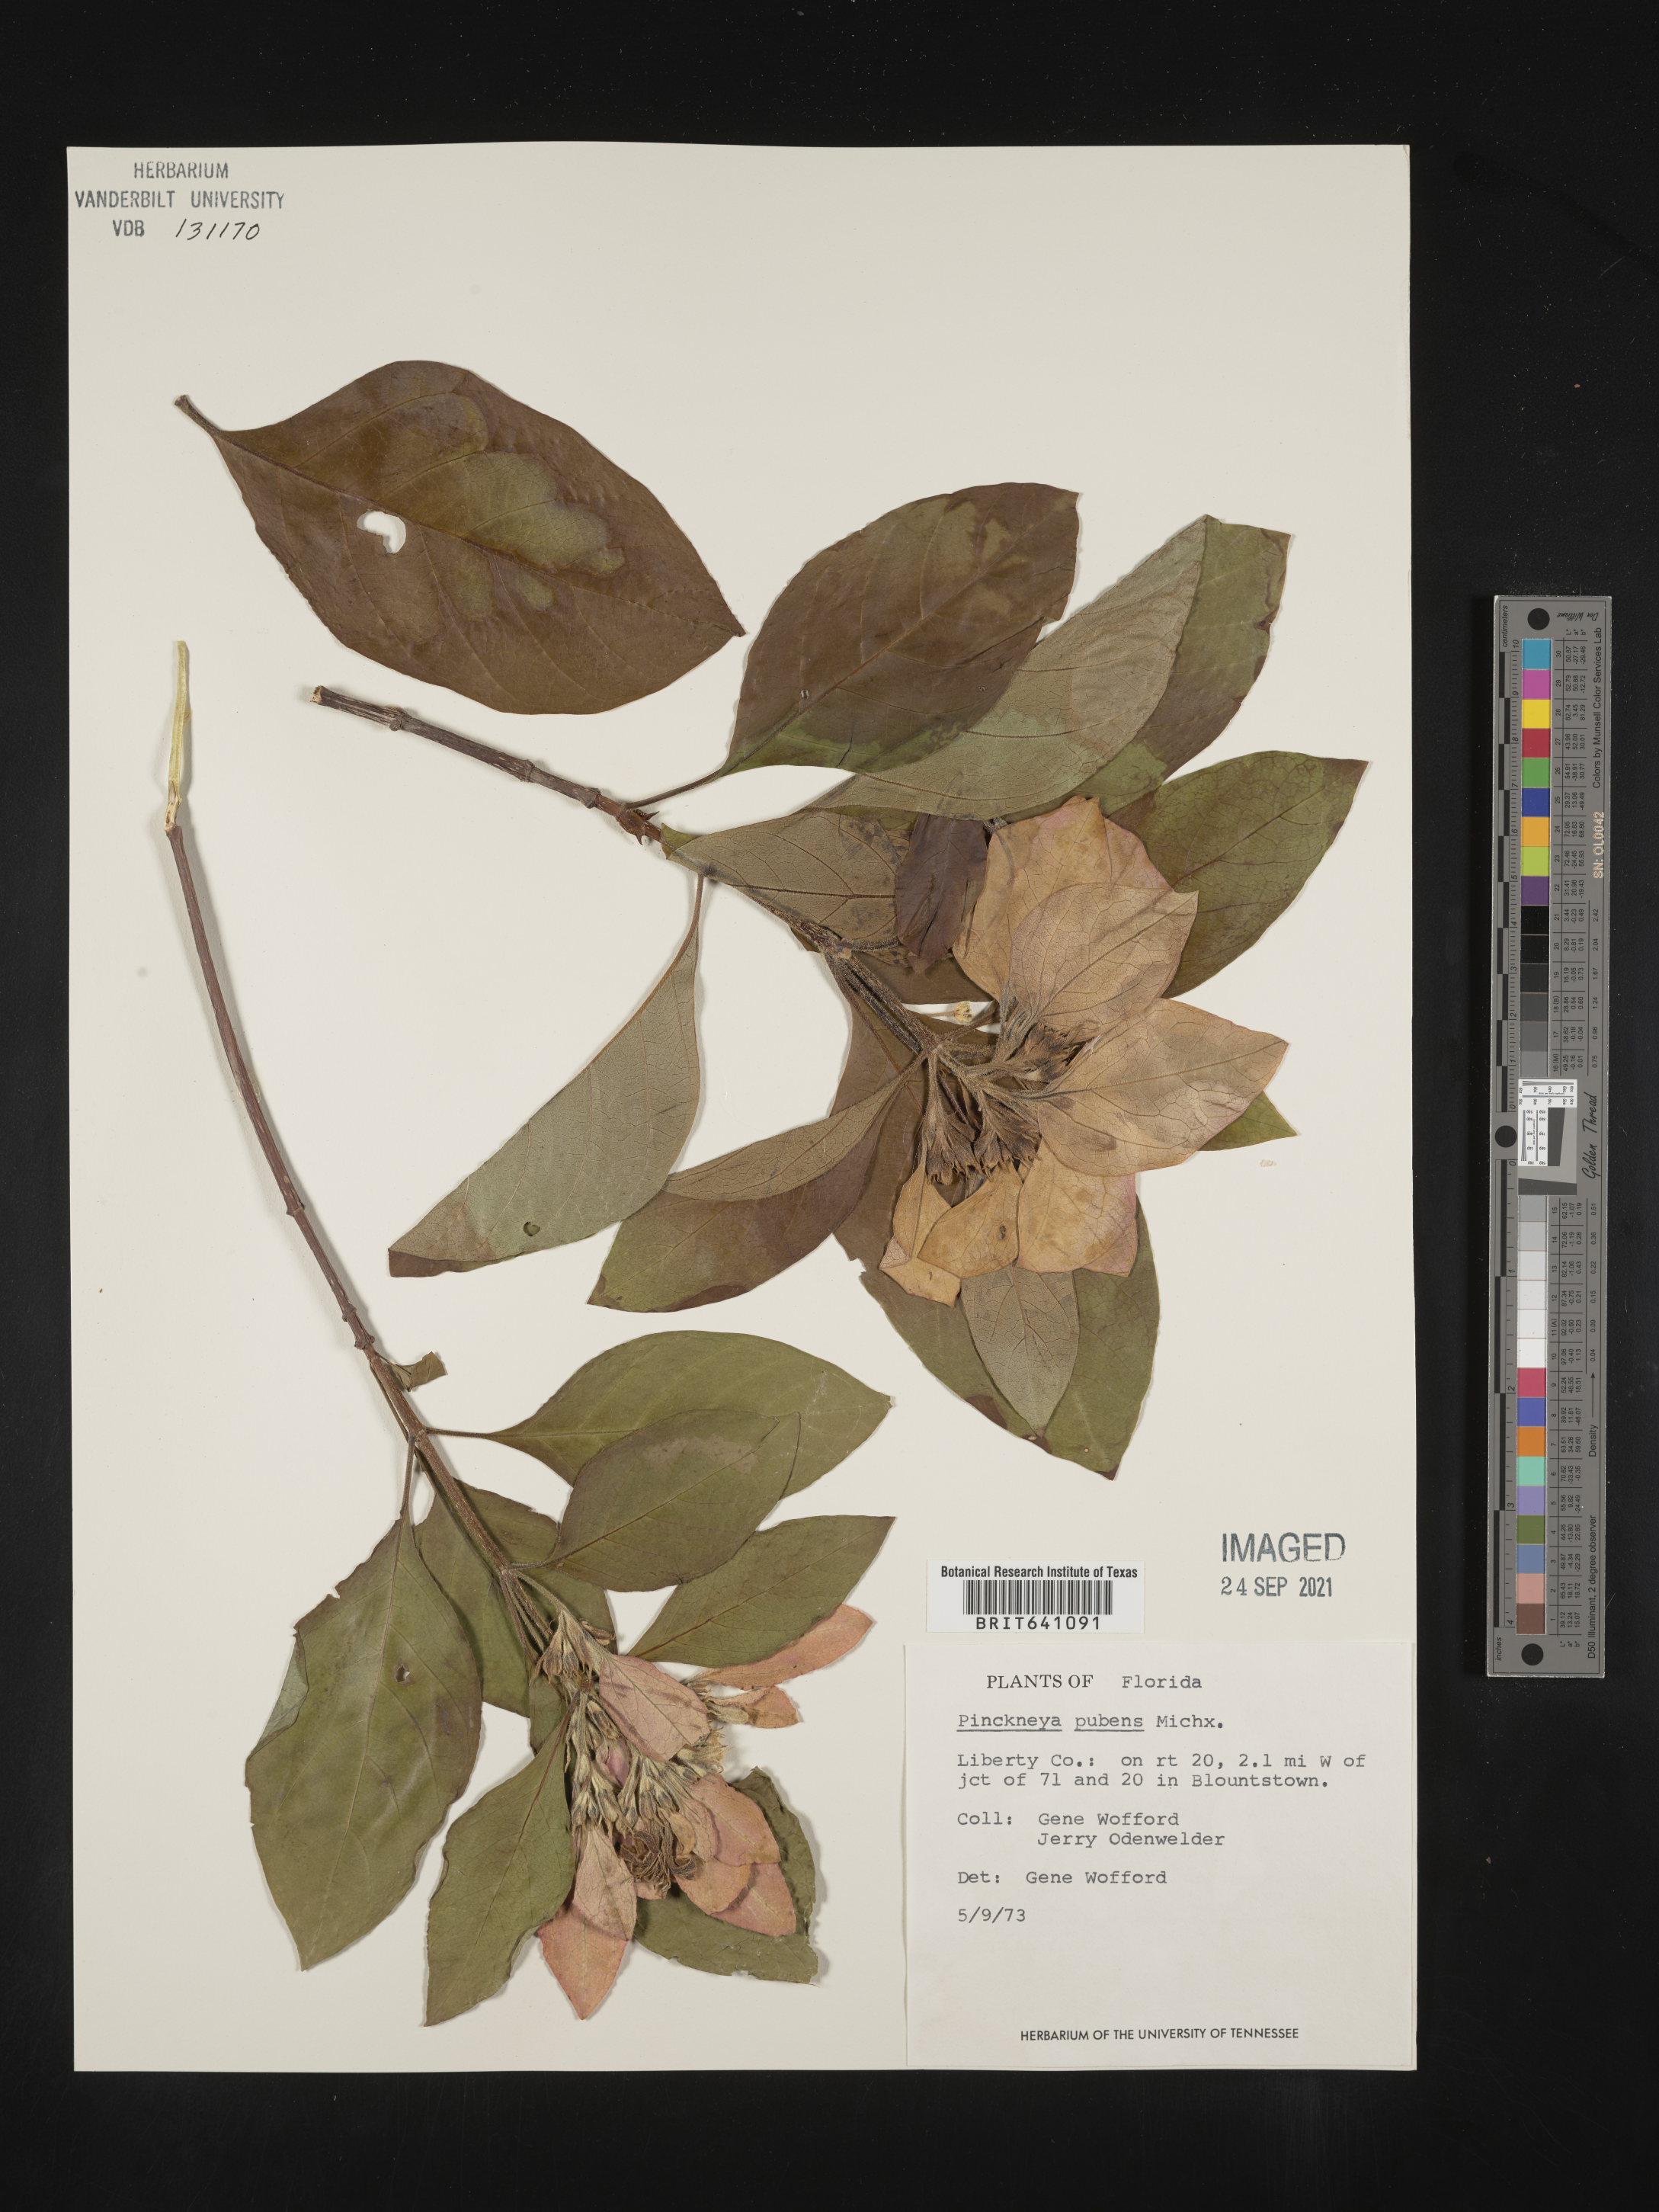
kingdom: Plantae
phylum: Tracheophyta
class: Magnoliopsida
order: Gentianales
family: Rubiaceae
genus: Pinckneya
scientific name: Pinckneya pubens
